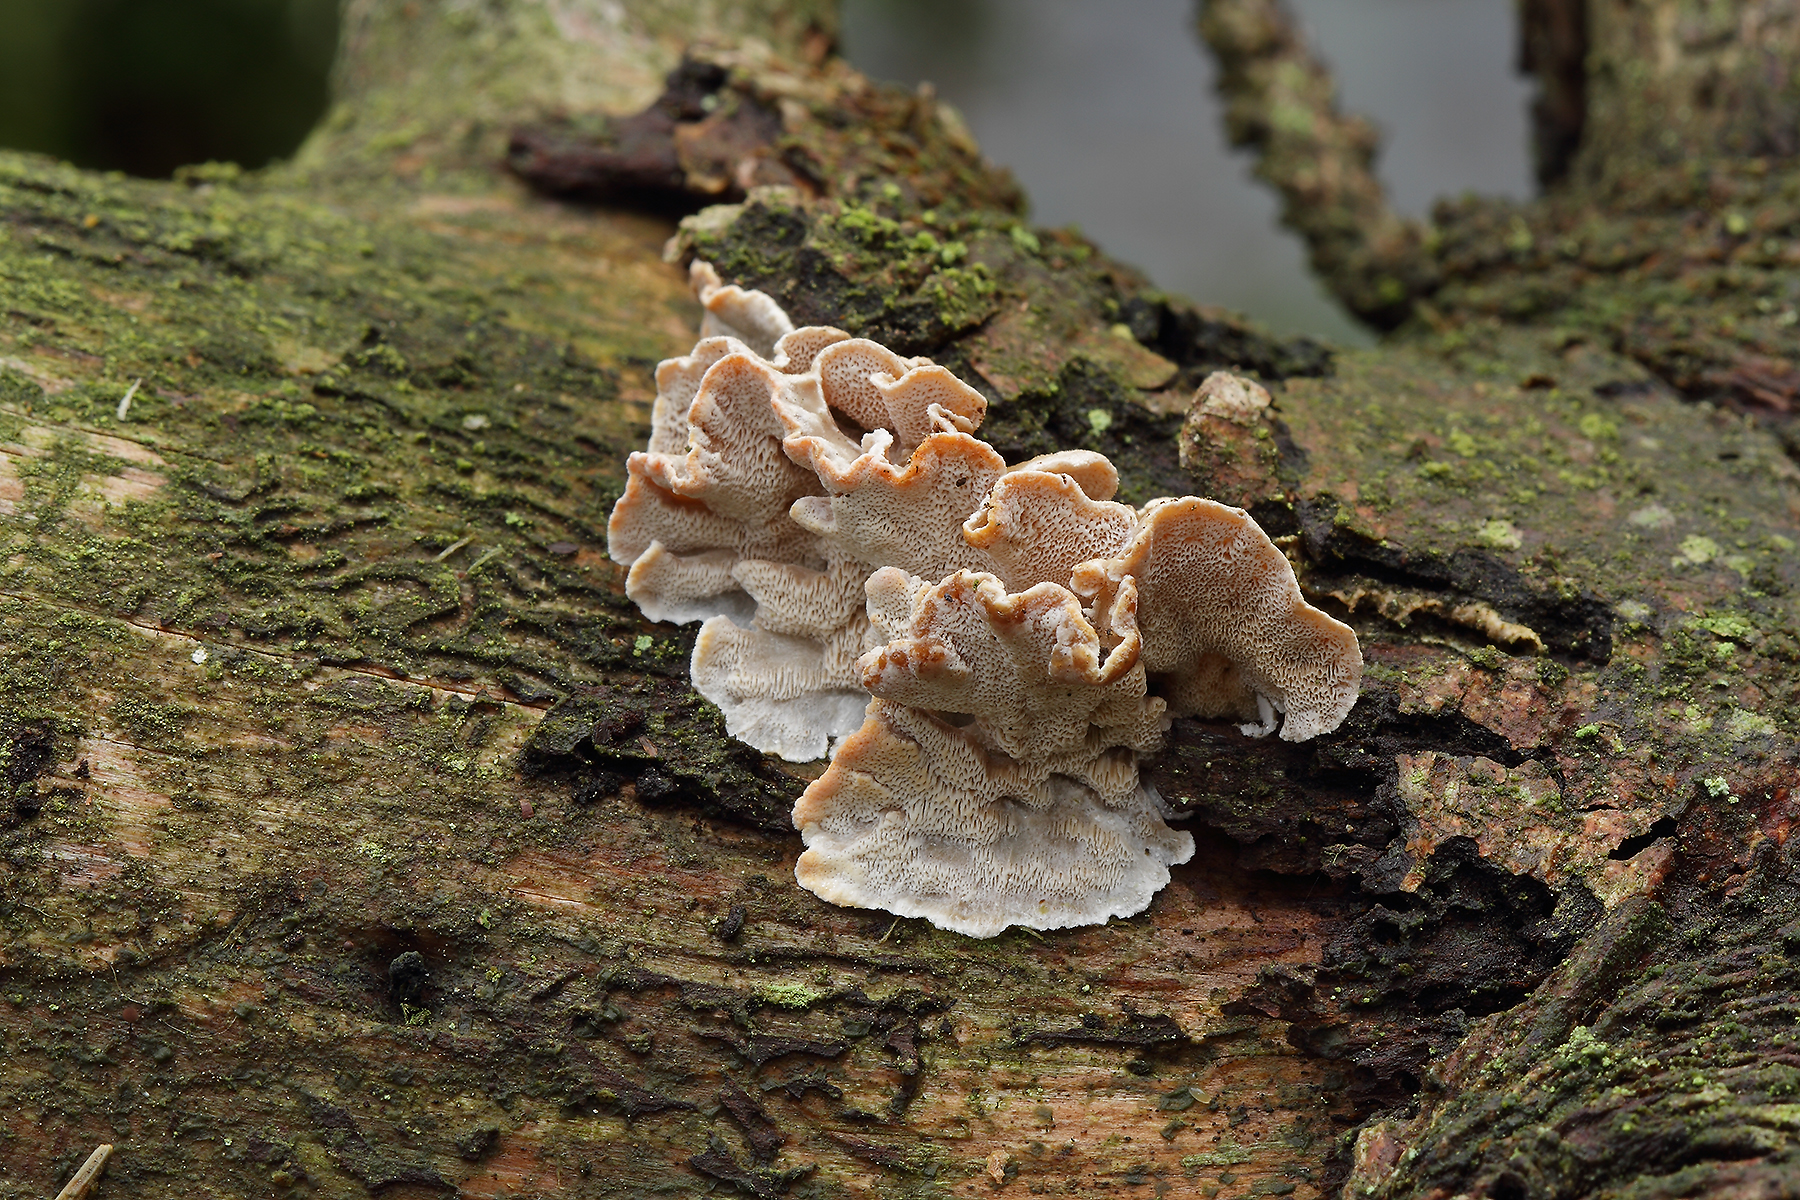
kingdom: Fungi
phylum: Basidiomycota
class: Agaricomycetes
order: Polyporales
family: Incrustoporiaceae
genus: Skeletocutis
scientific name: Skeletocutis carneogrisea
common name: rødgrå krystalporesvamp
